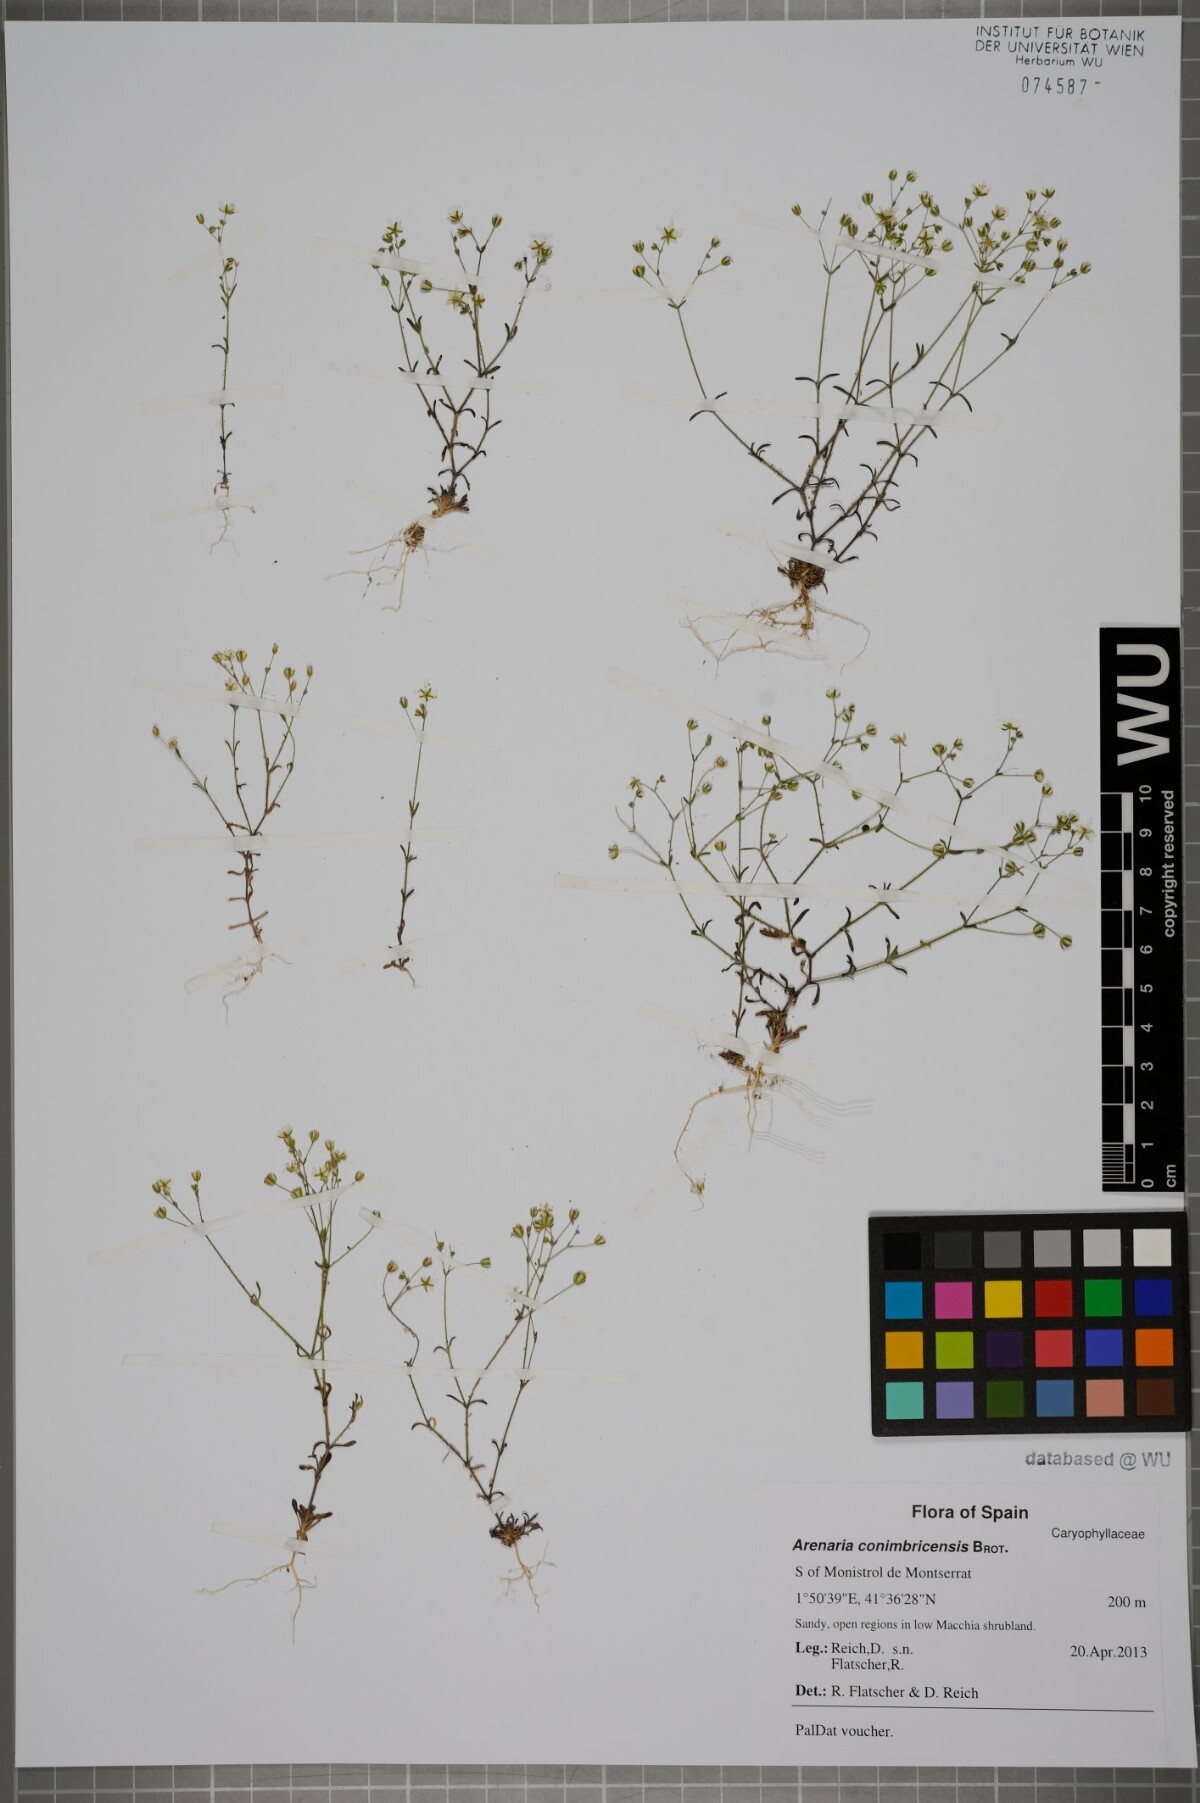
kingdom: Plantae
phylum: Tracheophyta
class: Magnoliopsida
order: Caryophyllales
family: Caryophyllaceae
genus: Arenaria
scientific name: Arenaria conimbricensis
